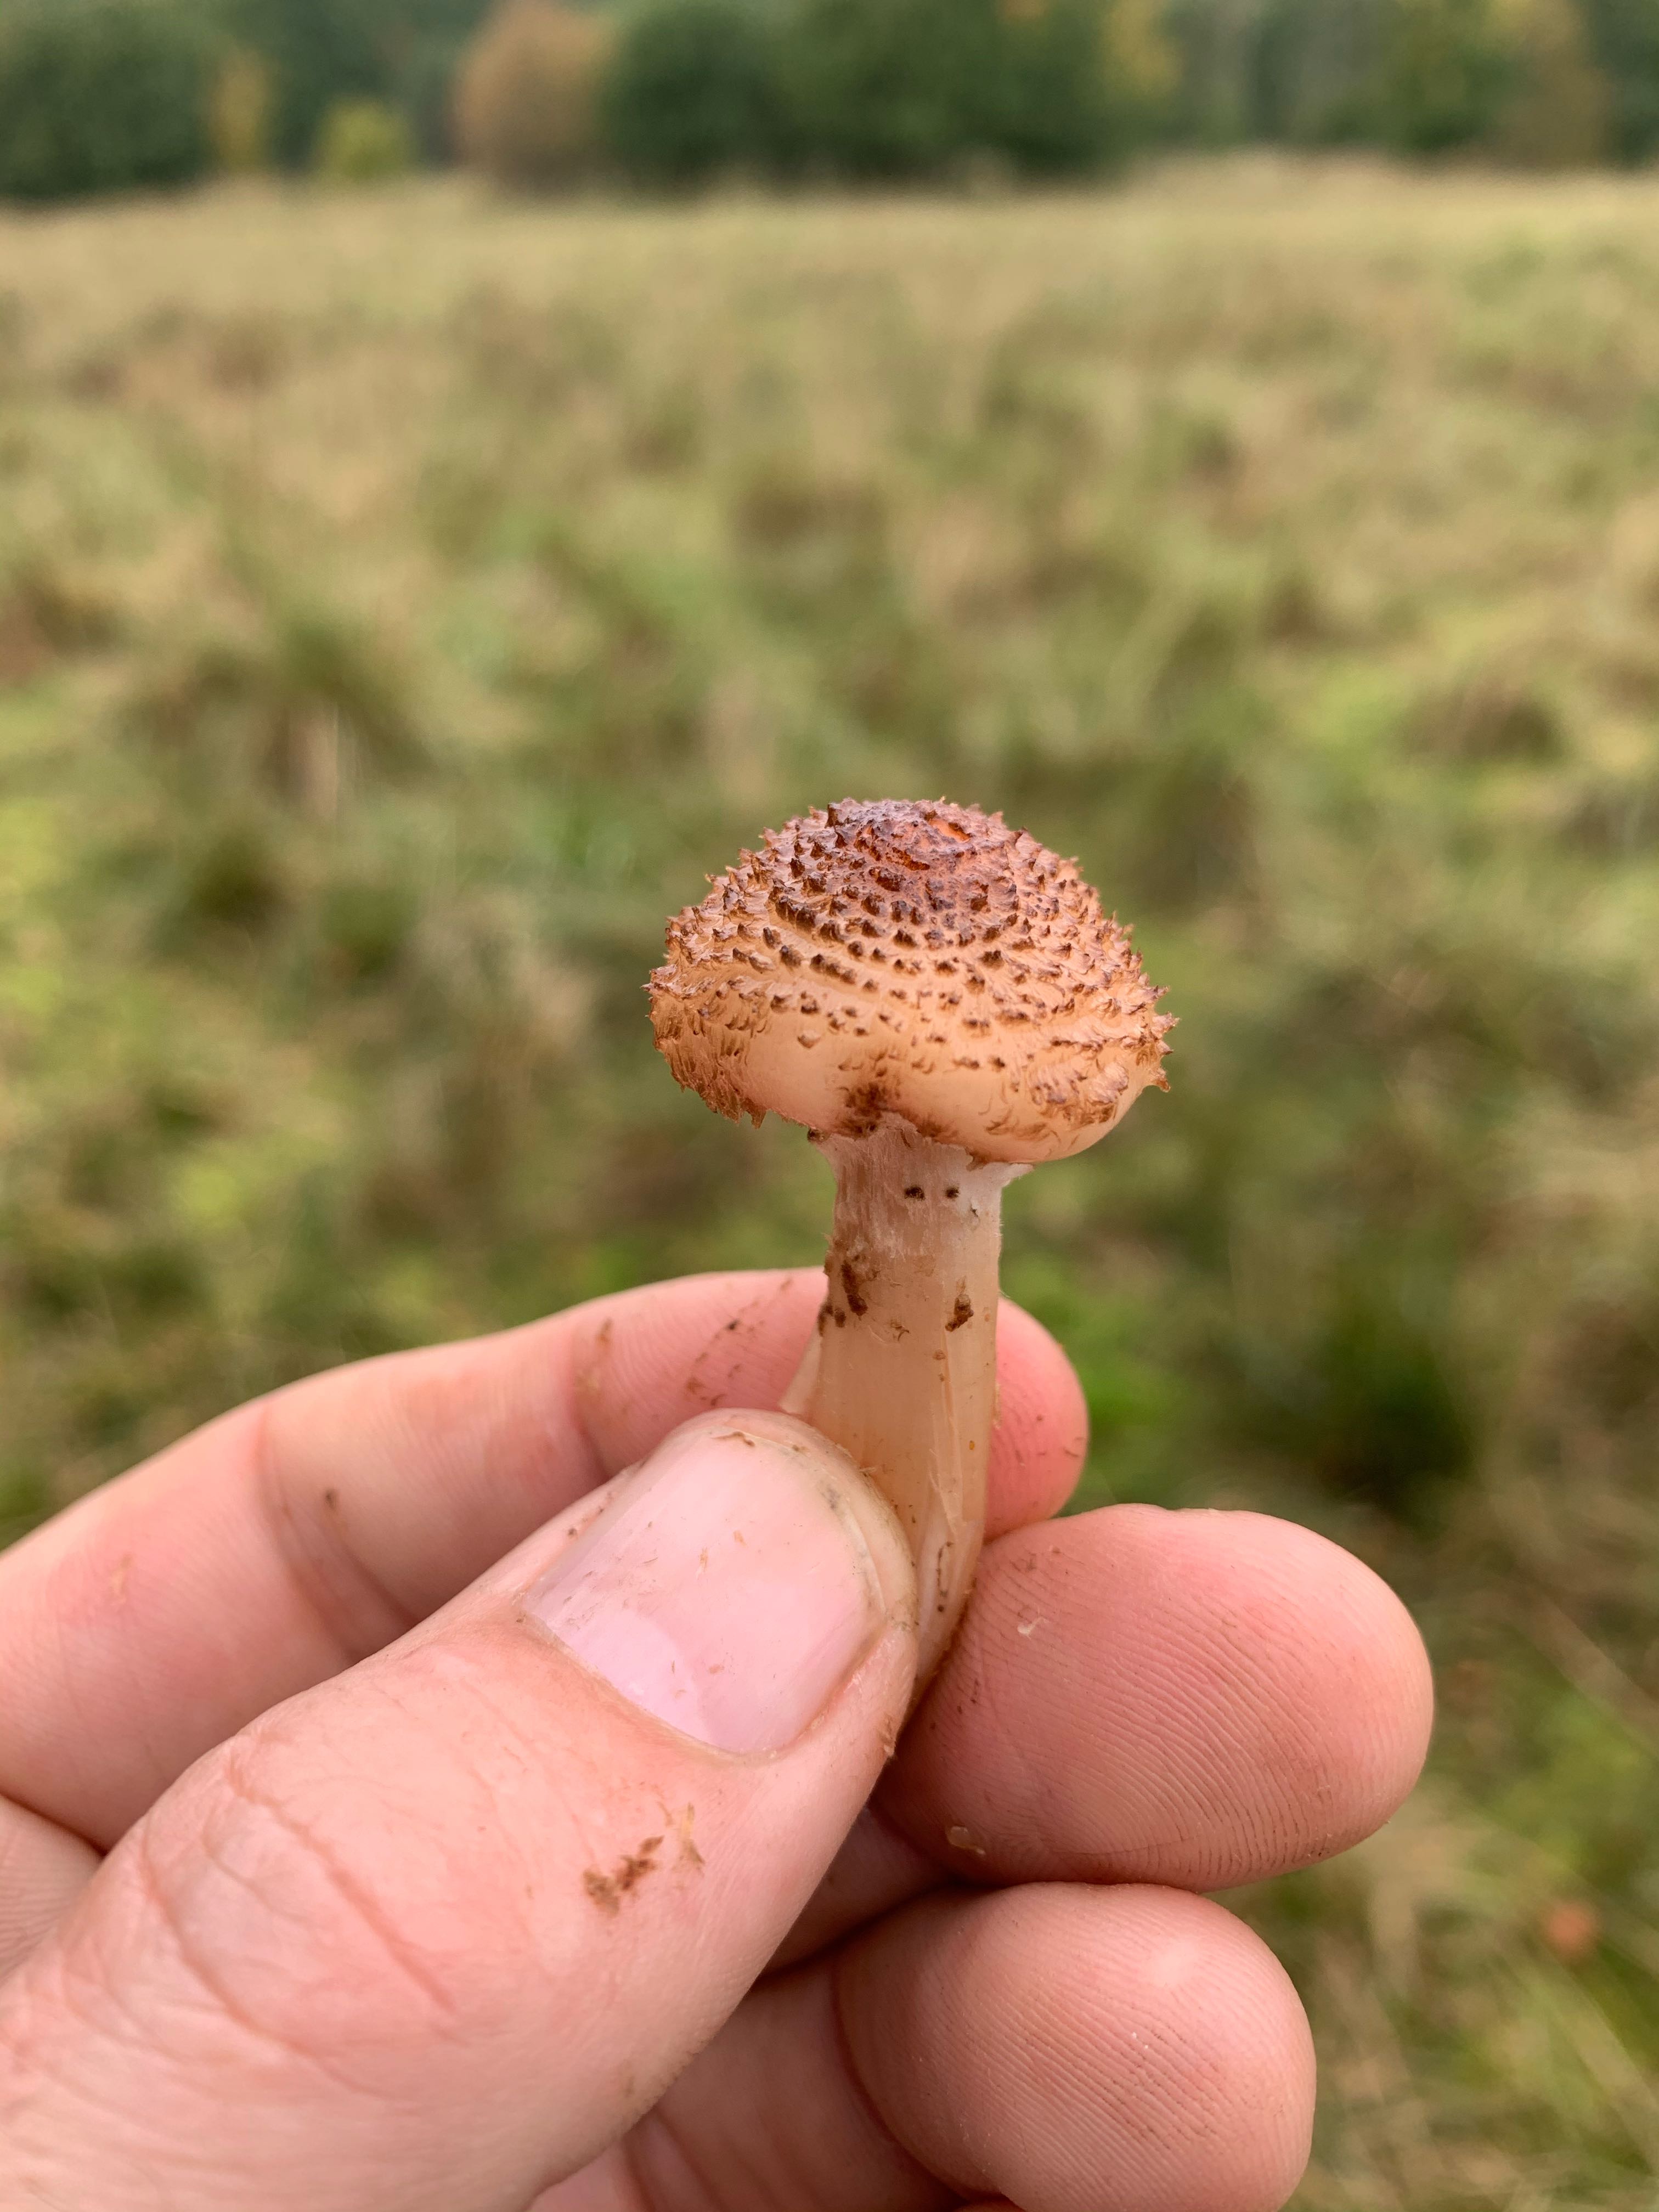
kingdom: Fungi
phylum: Basidiomycota
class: Agaricomycetes
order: Agaricales
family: Physalacriaceae
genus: Armillaria
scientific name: Armillaria ostoyae
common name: mørk honningsvamp
